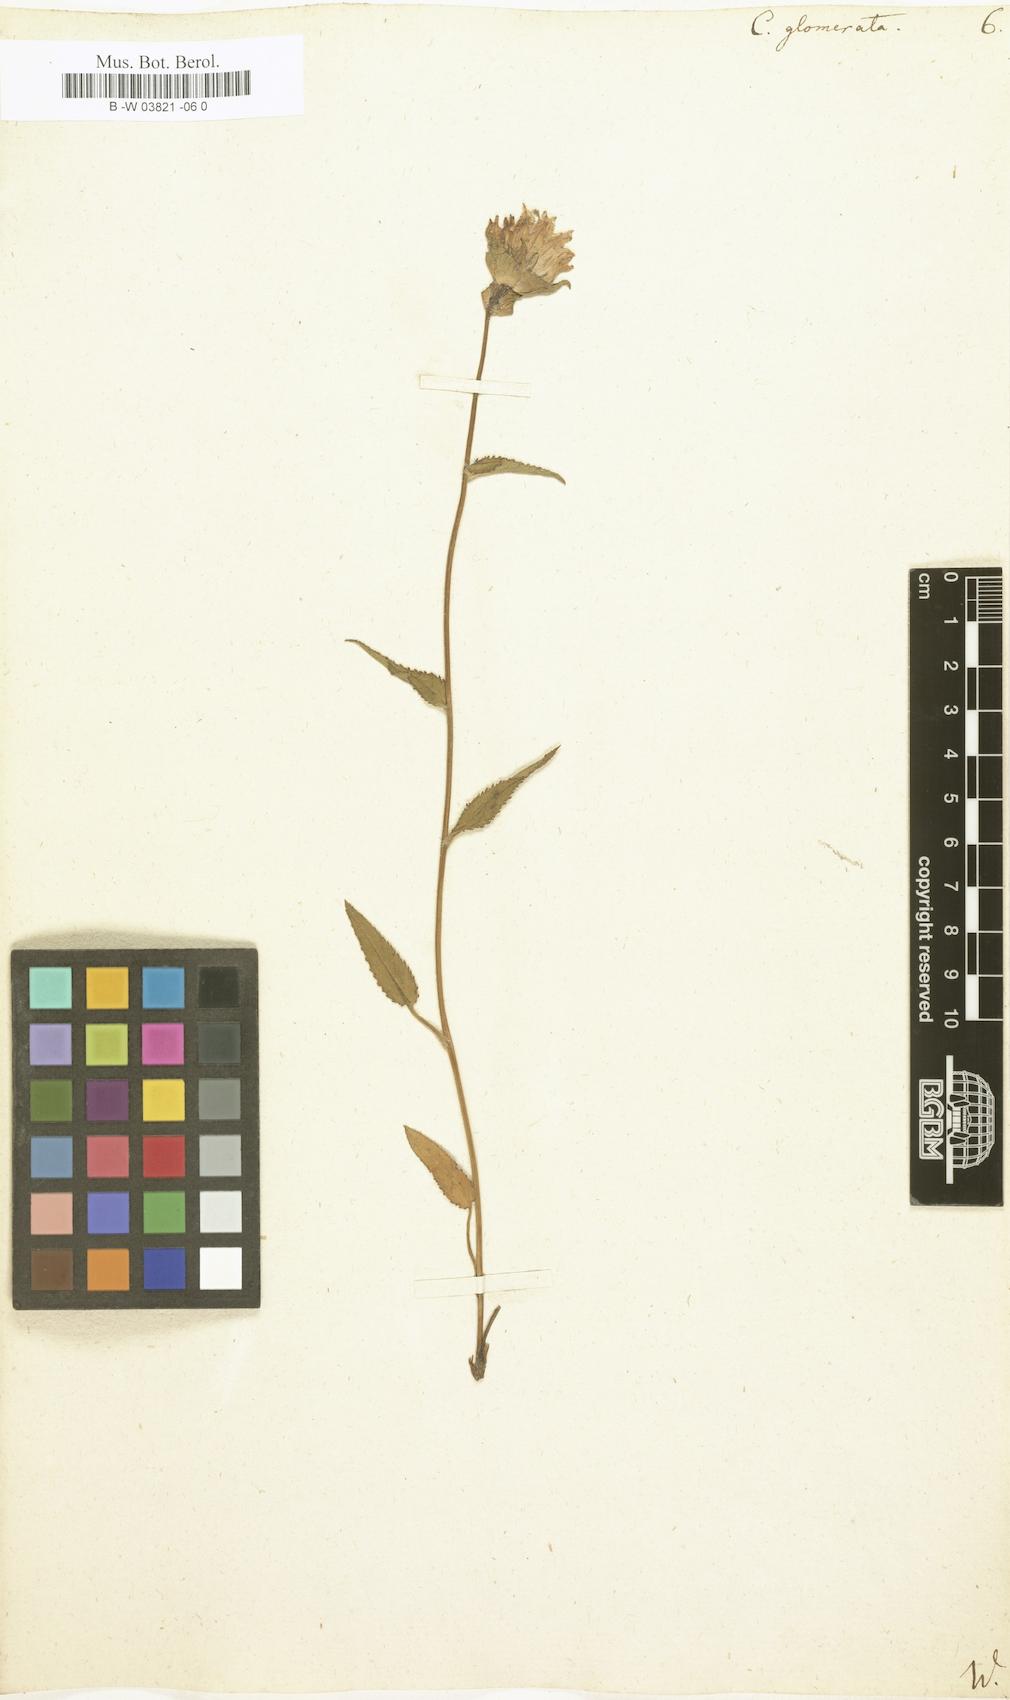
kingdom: Plantae
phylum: Tracheophyta
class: Magnoliopsida
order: Asterales
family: Campanulaceae
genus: Campanula
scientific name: Campanula glomerata
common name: Clustered bellflower
